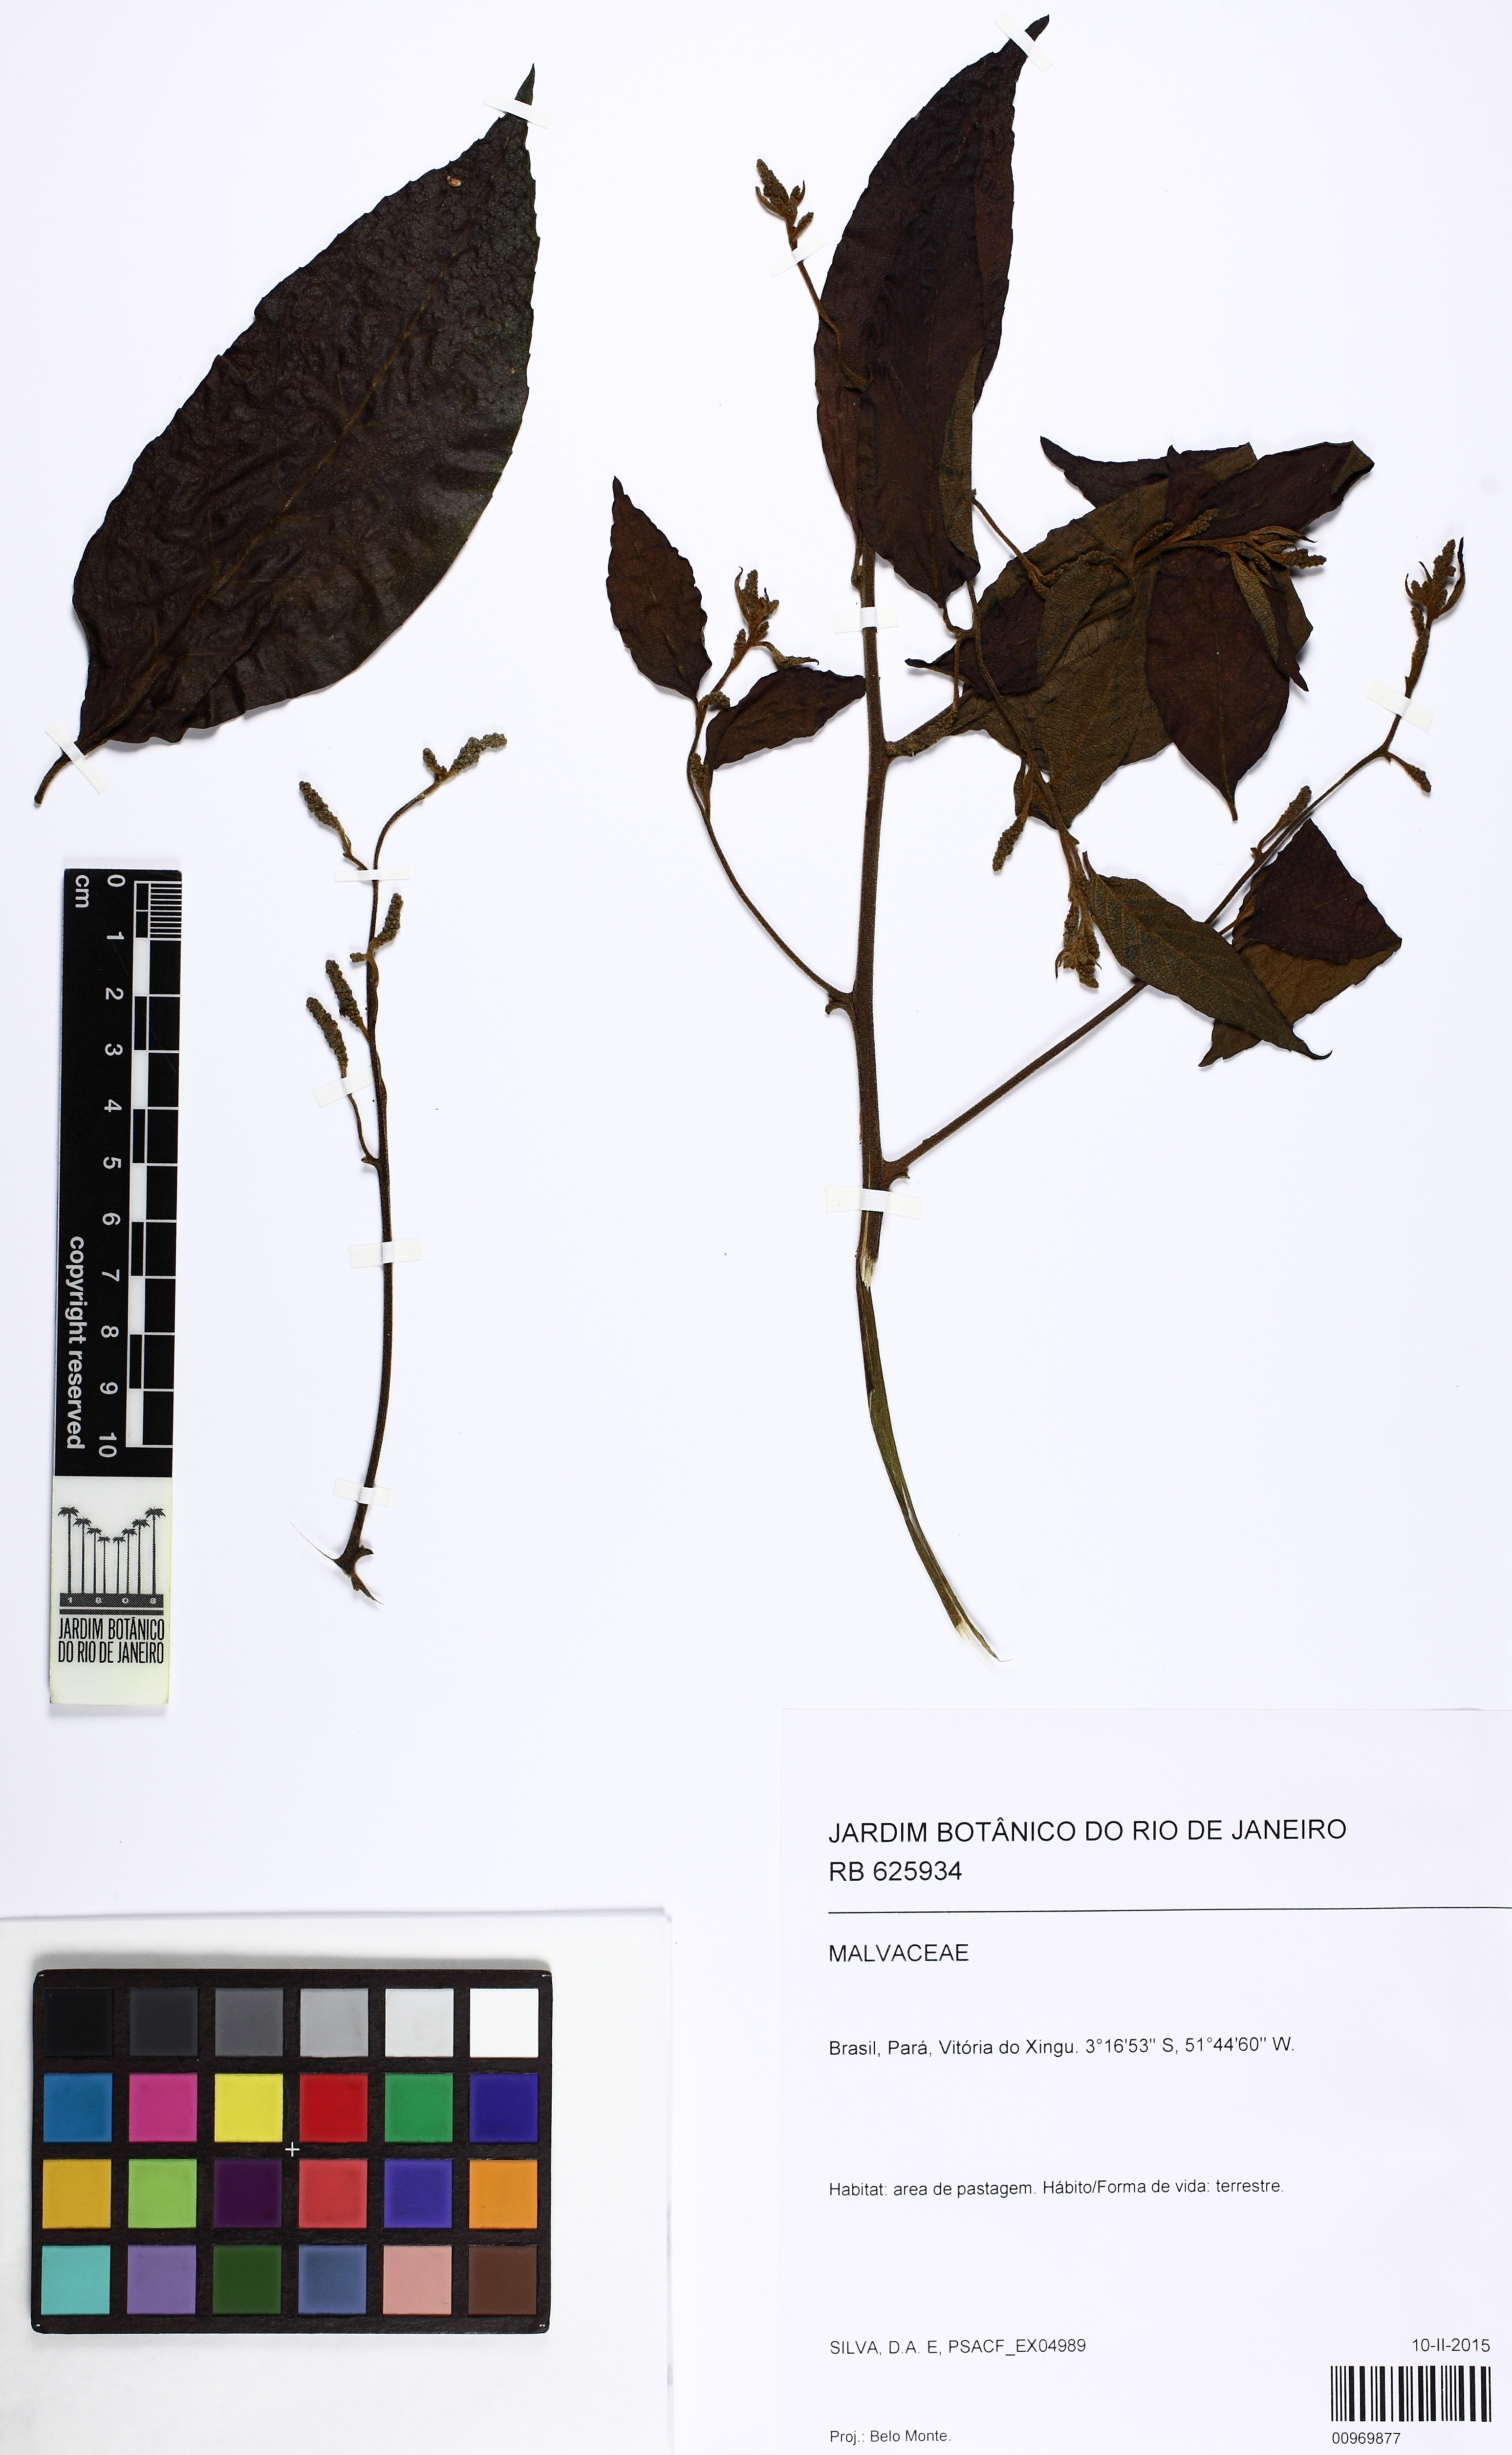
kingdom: Plantae
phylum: Tracheophyta
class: Magnoliopsida
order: Boraginales
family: Cordiaceae
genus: Varronia
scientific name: Varronia spinescens
